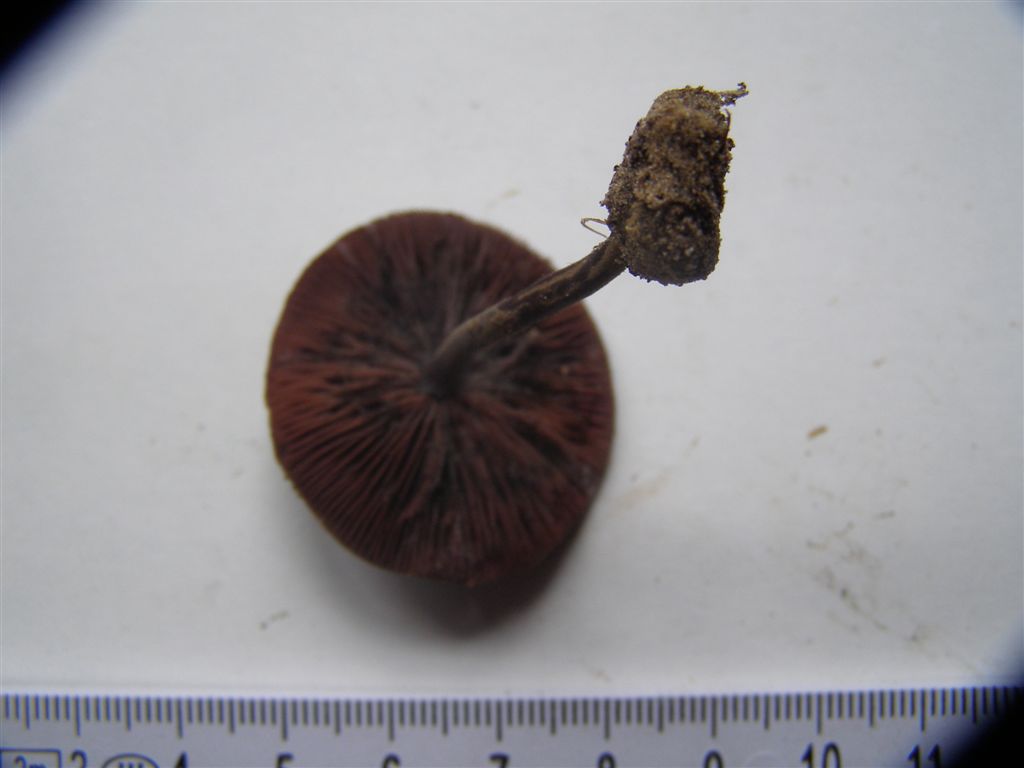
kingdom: Fungi
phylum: Basidiomycota
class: Agaricomycetes
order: Agaricales
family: Agaricaceae
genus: Melanophyllum
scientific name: Melanophyllum haematospermum
